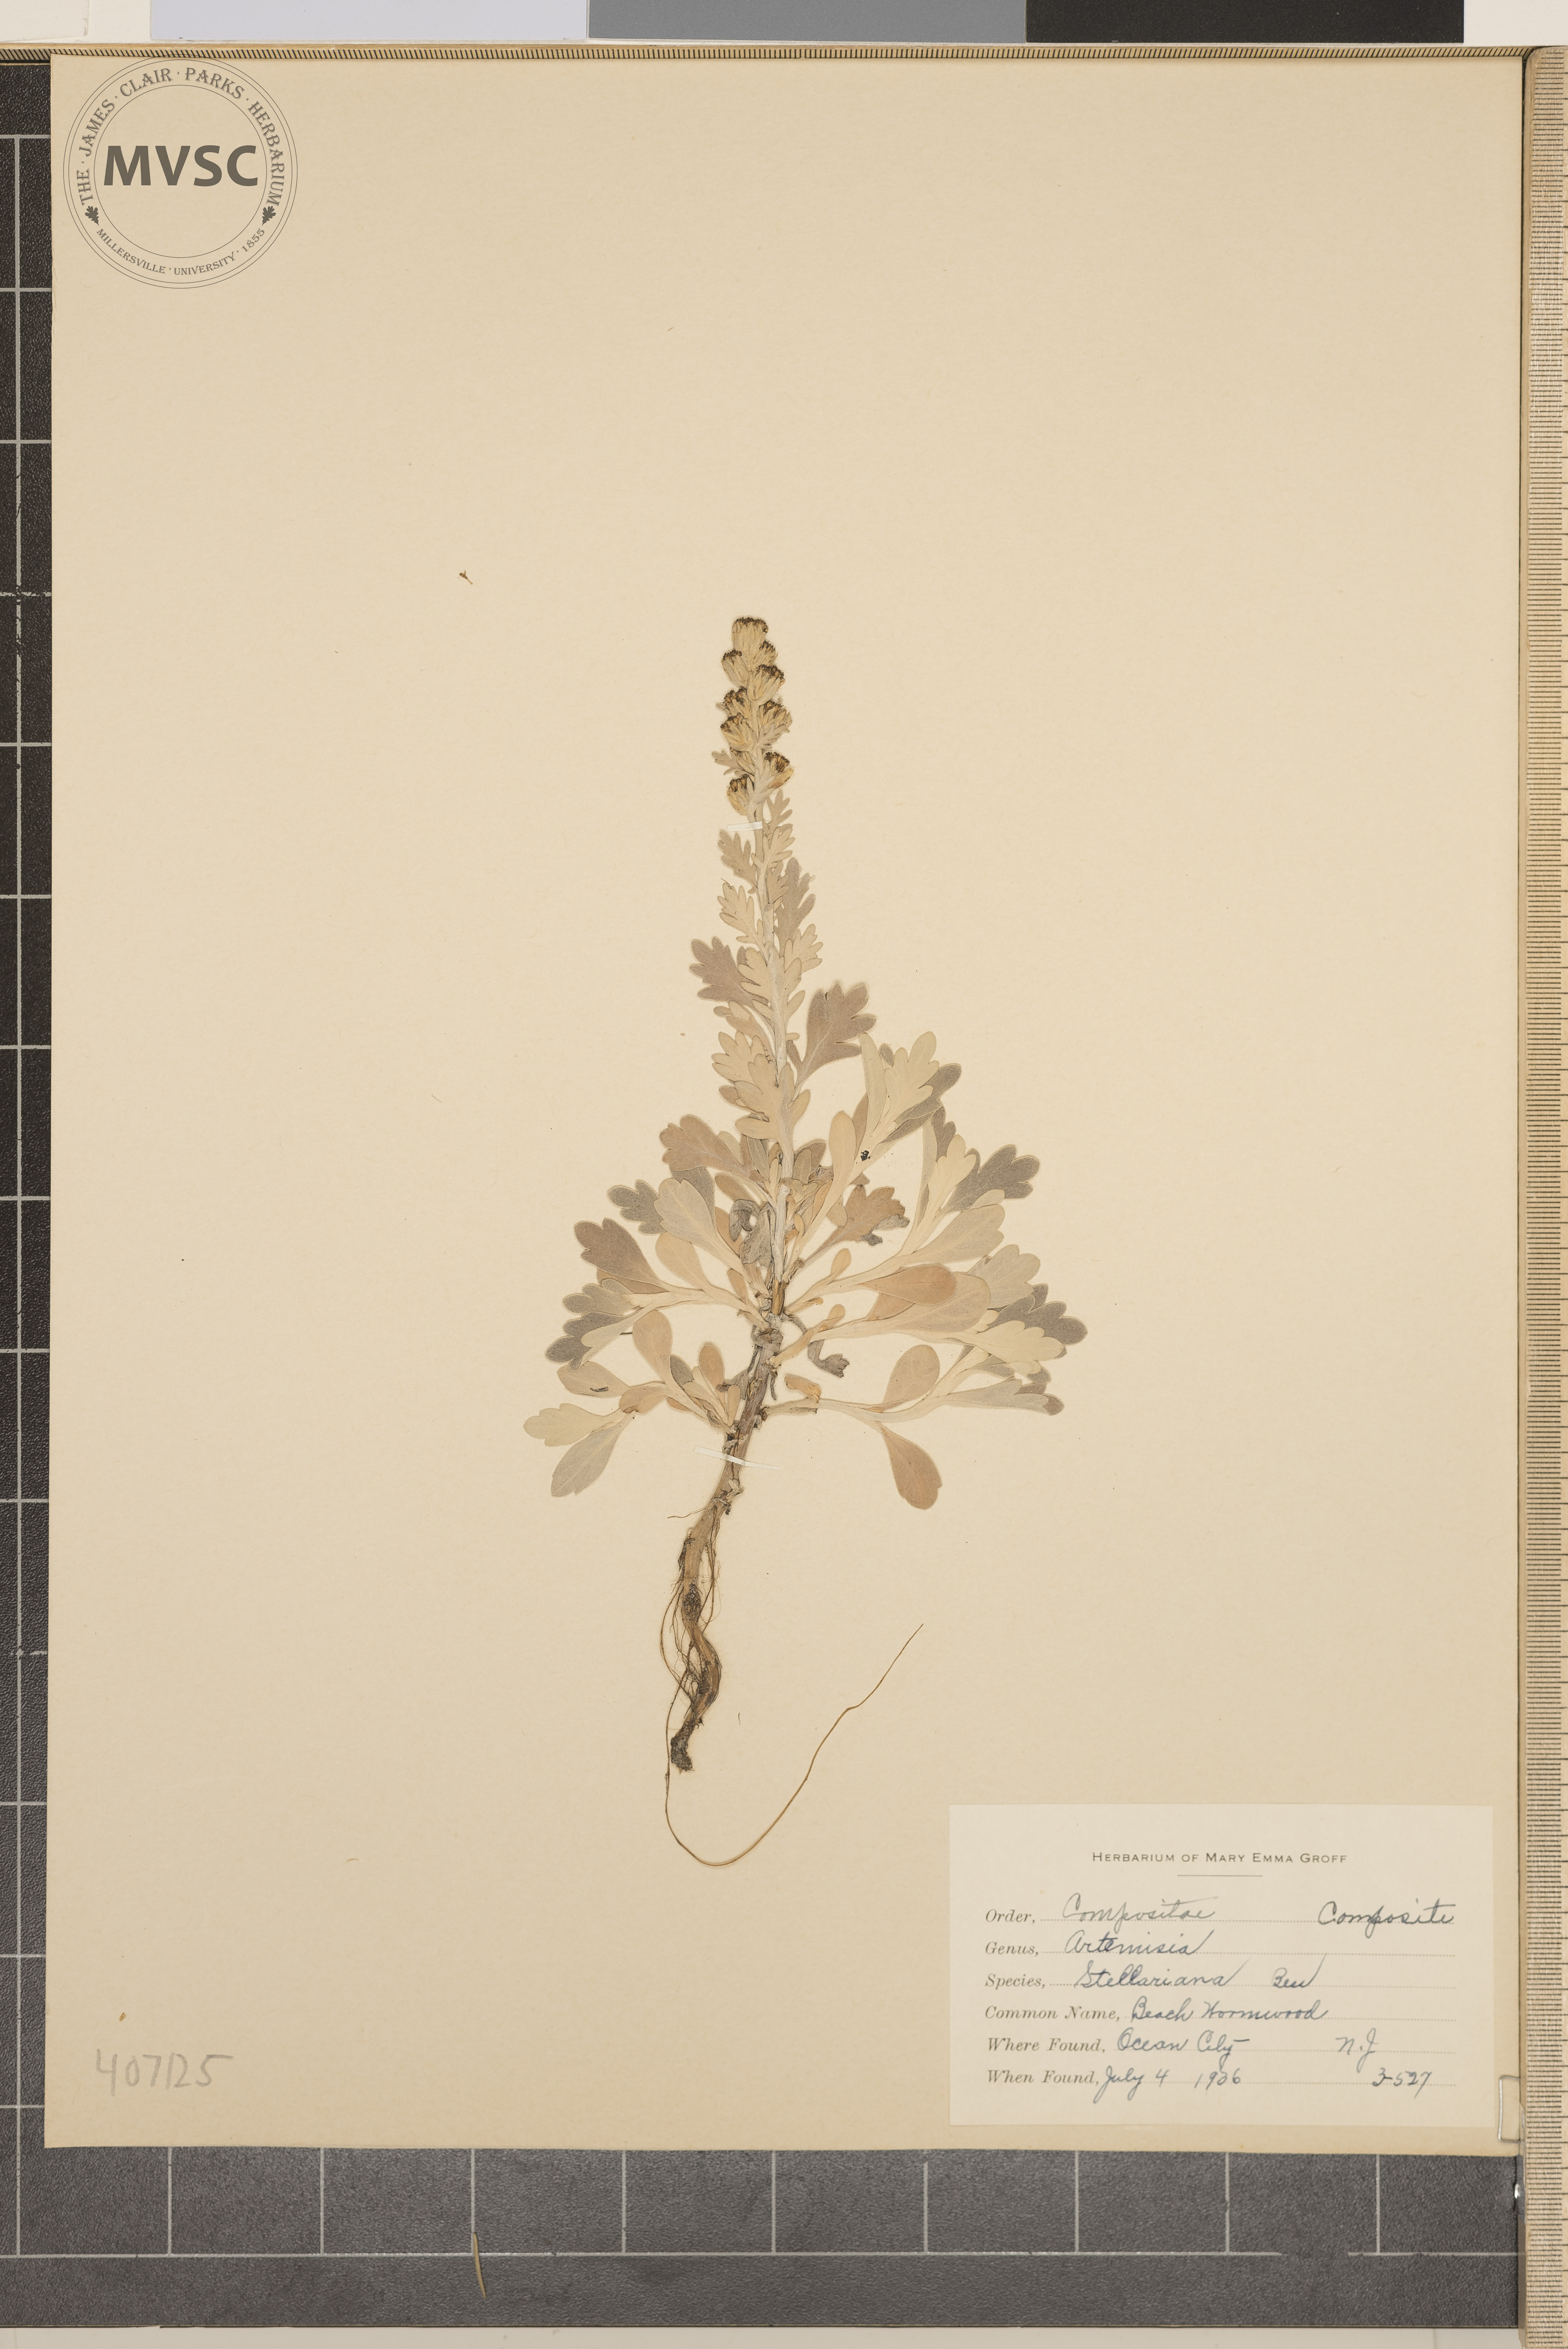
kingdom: Plantae
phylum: Tracheophyta
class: Magnoliopsida
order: Asterales
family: Asteraceae
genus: Artemisia
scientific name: Artemisia stelleriana
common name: Beach Wormwood
